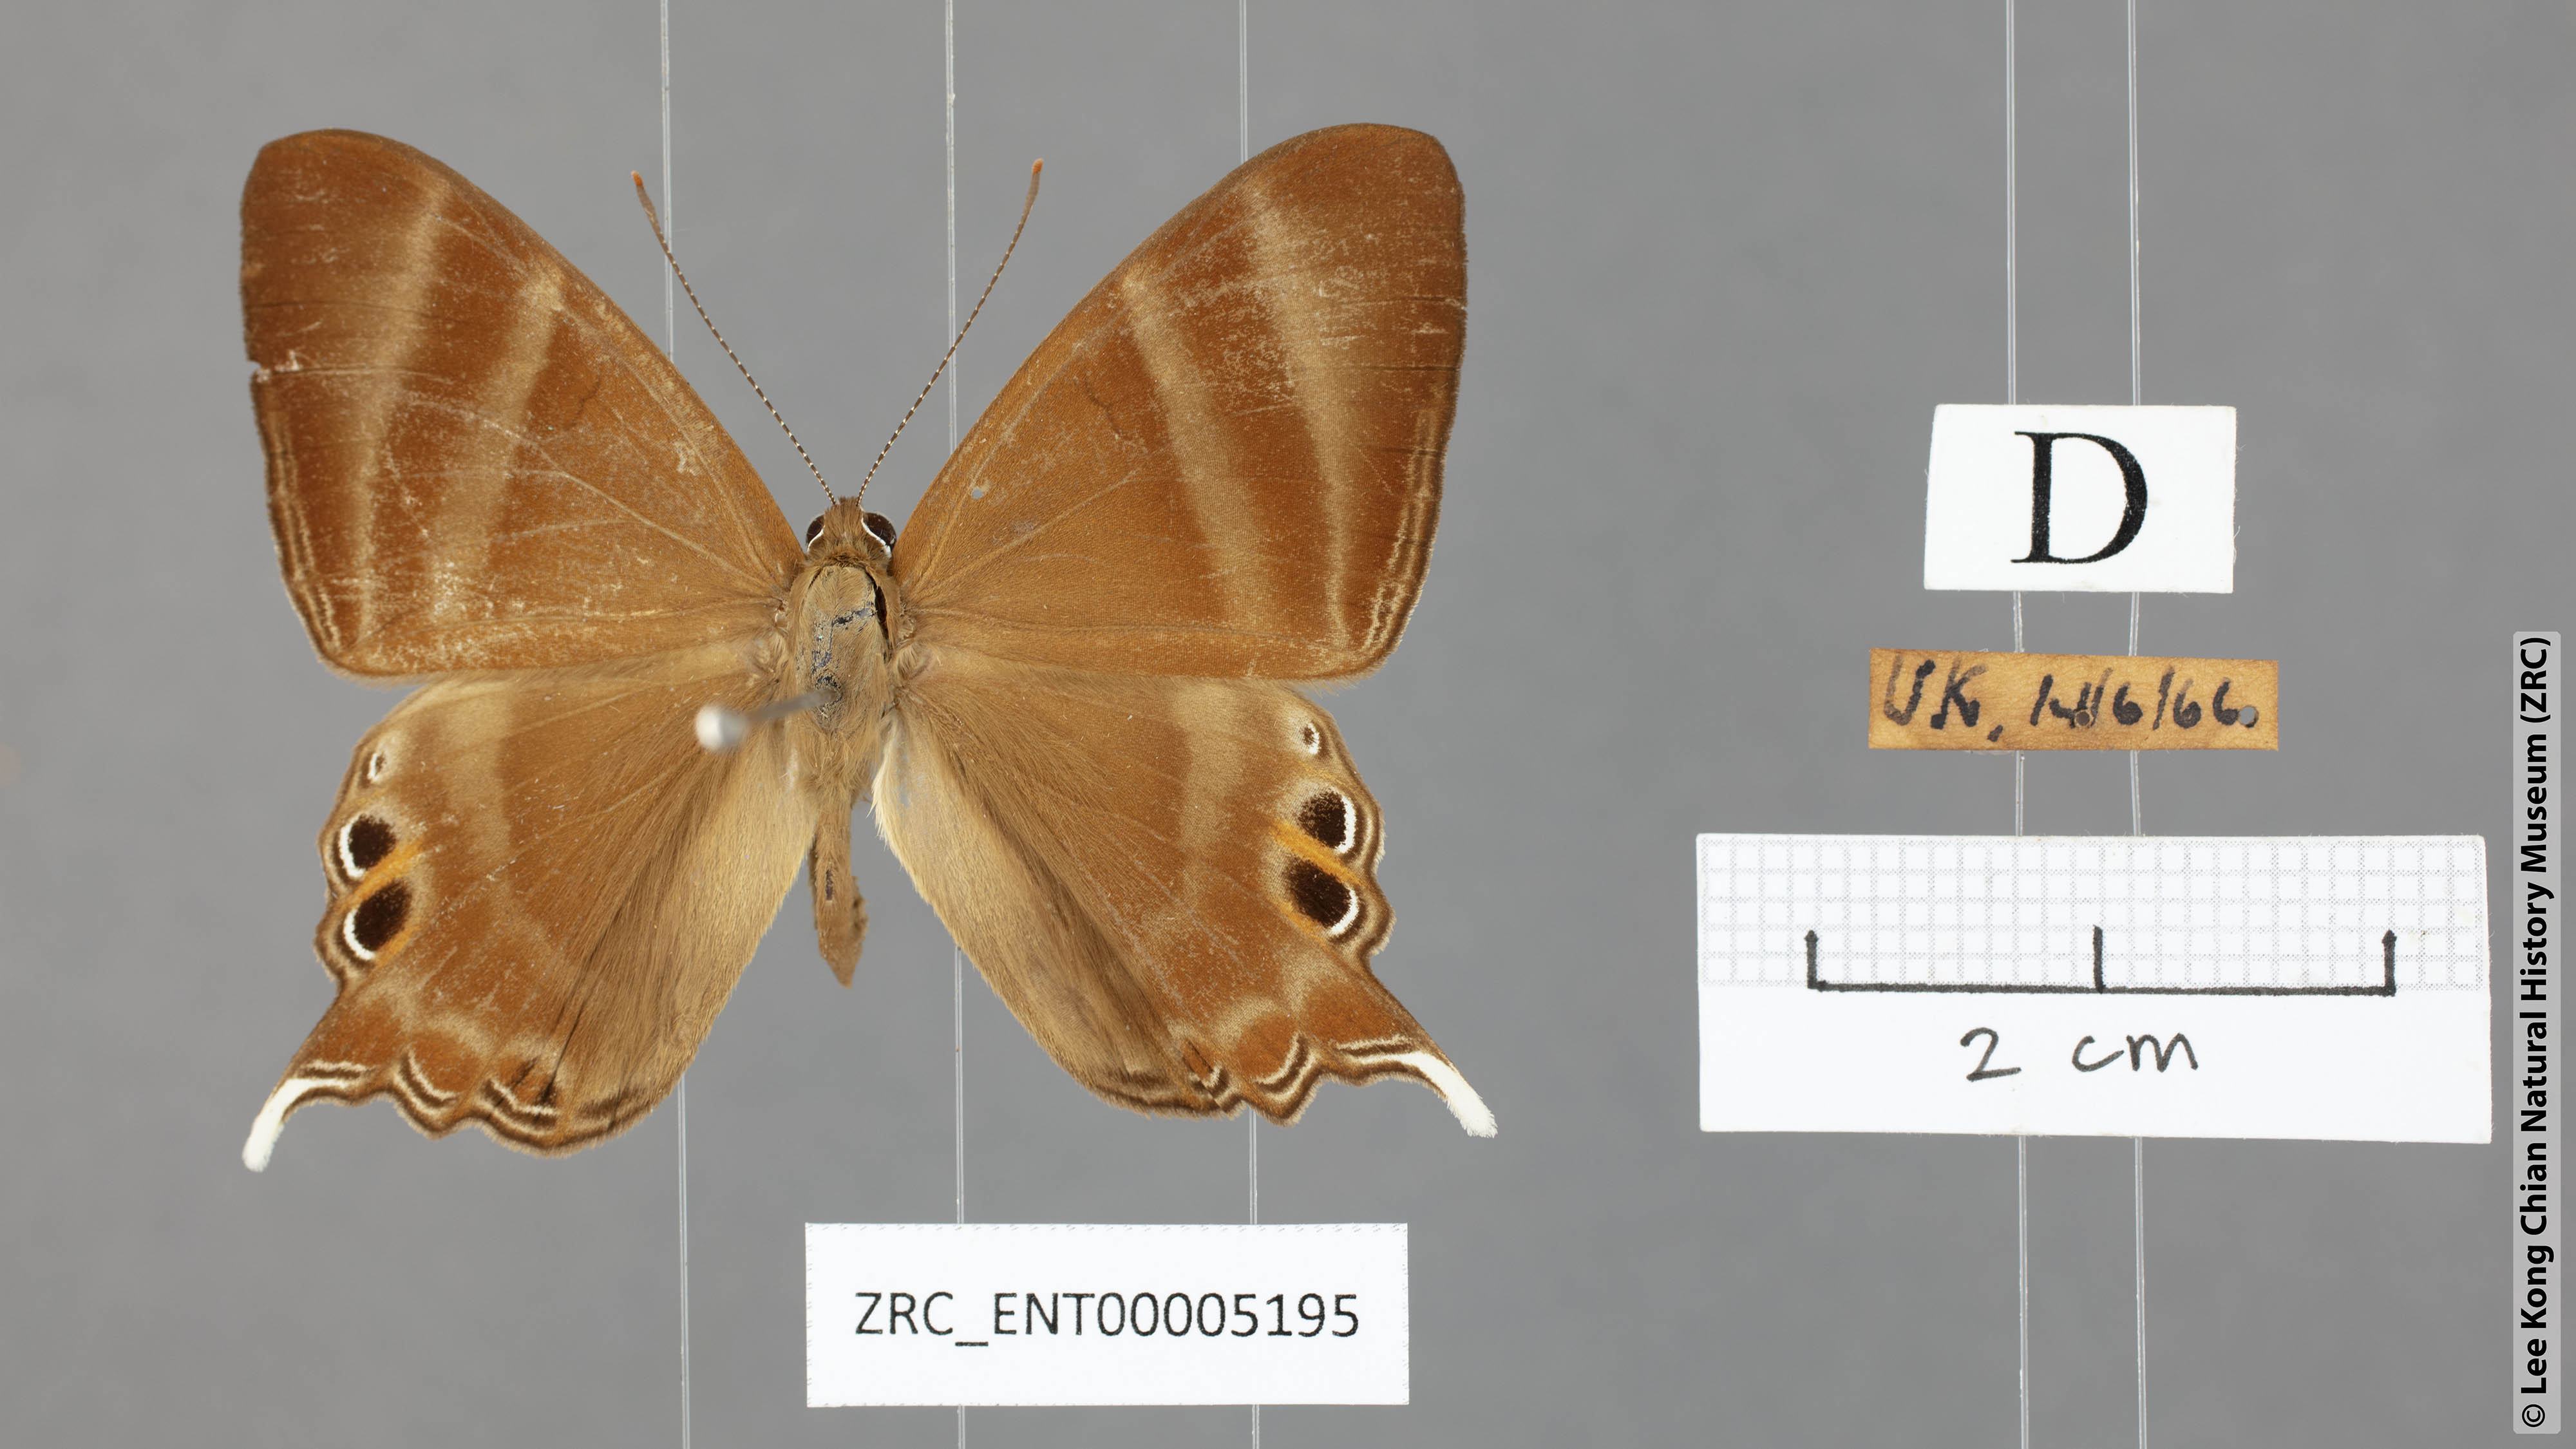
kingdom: Animalia
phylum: Arthropoda
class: Insecta
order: Lepidoptera
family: Riodinidae
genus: Archigenes
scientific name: Archigenes savitri
